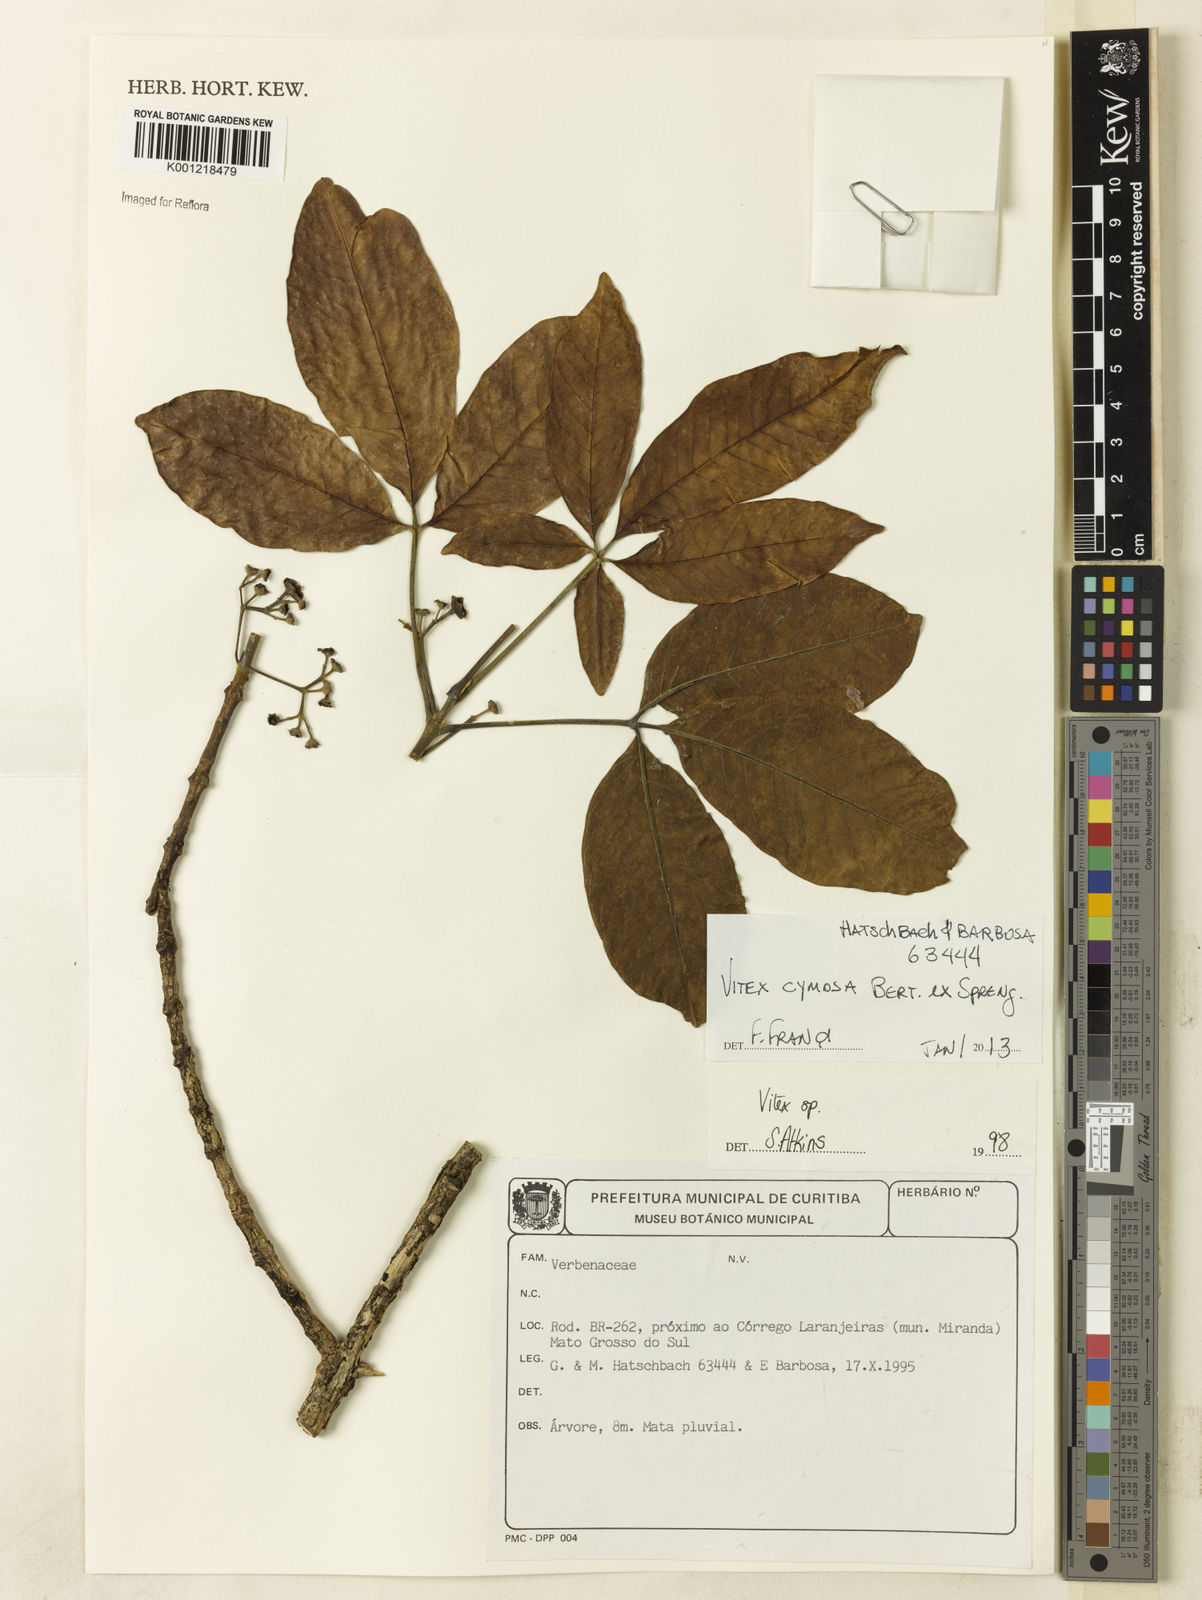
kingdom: Plantae
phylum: Tracheophyta
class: Magnoliopsida
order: Lamiales
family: Lamiaceae
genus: Vitex
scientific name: Vitex cymosa
